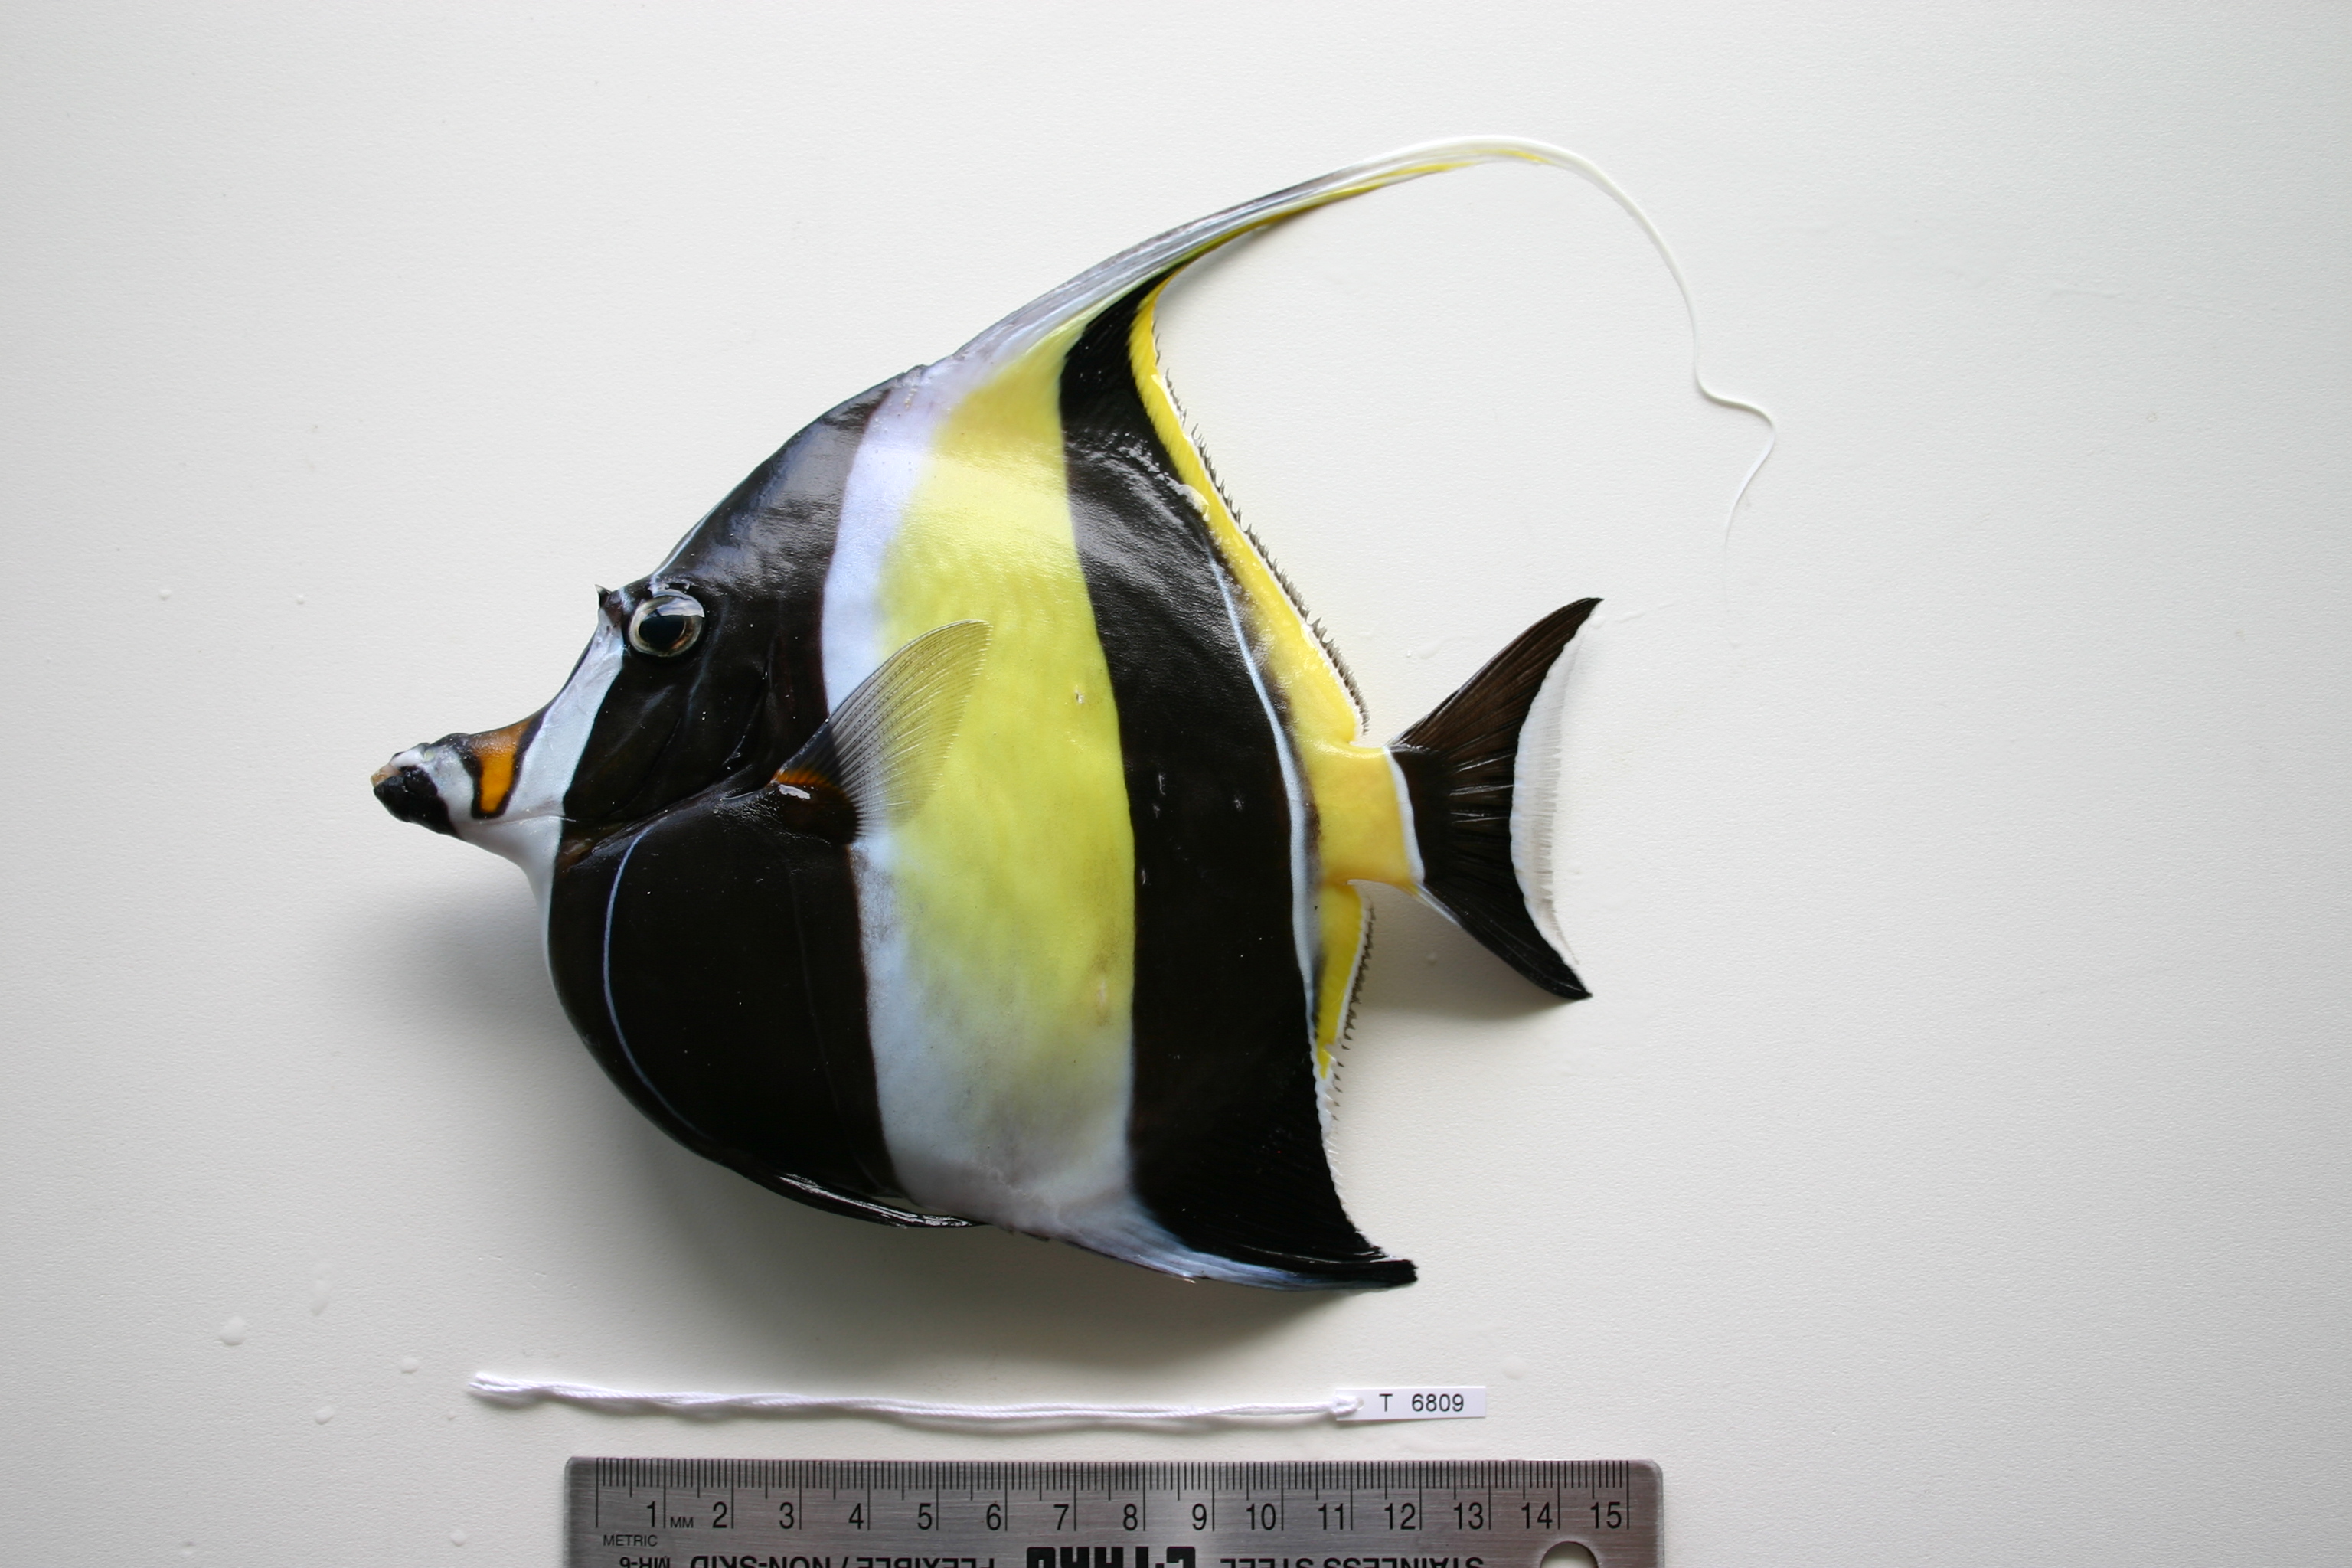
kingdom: Animalia
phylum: Chordata
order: Perciformes
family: Zanclidae
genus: Zanclus
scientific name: Zanclus cornutus
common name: Moorish idol
